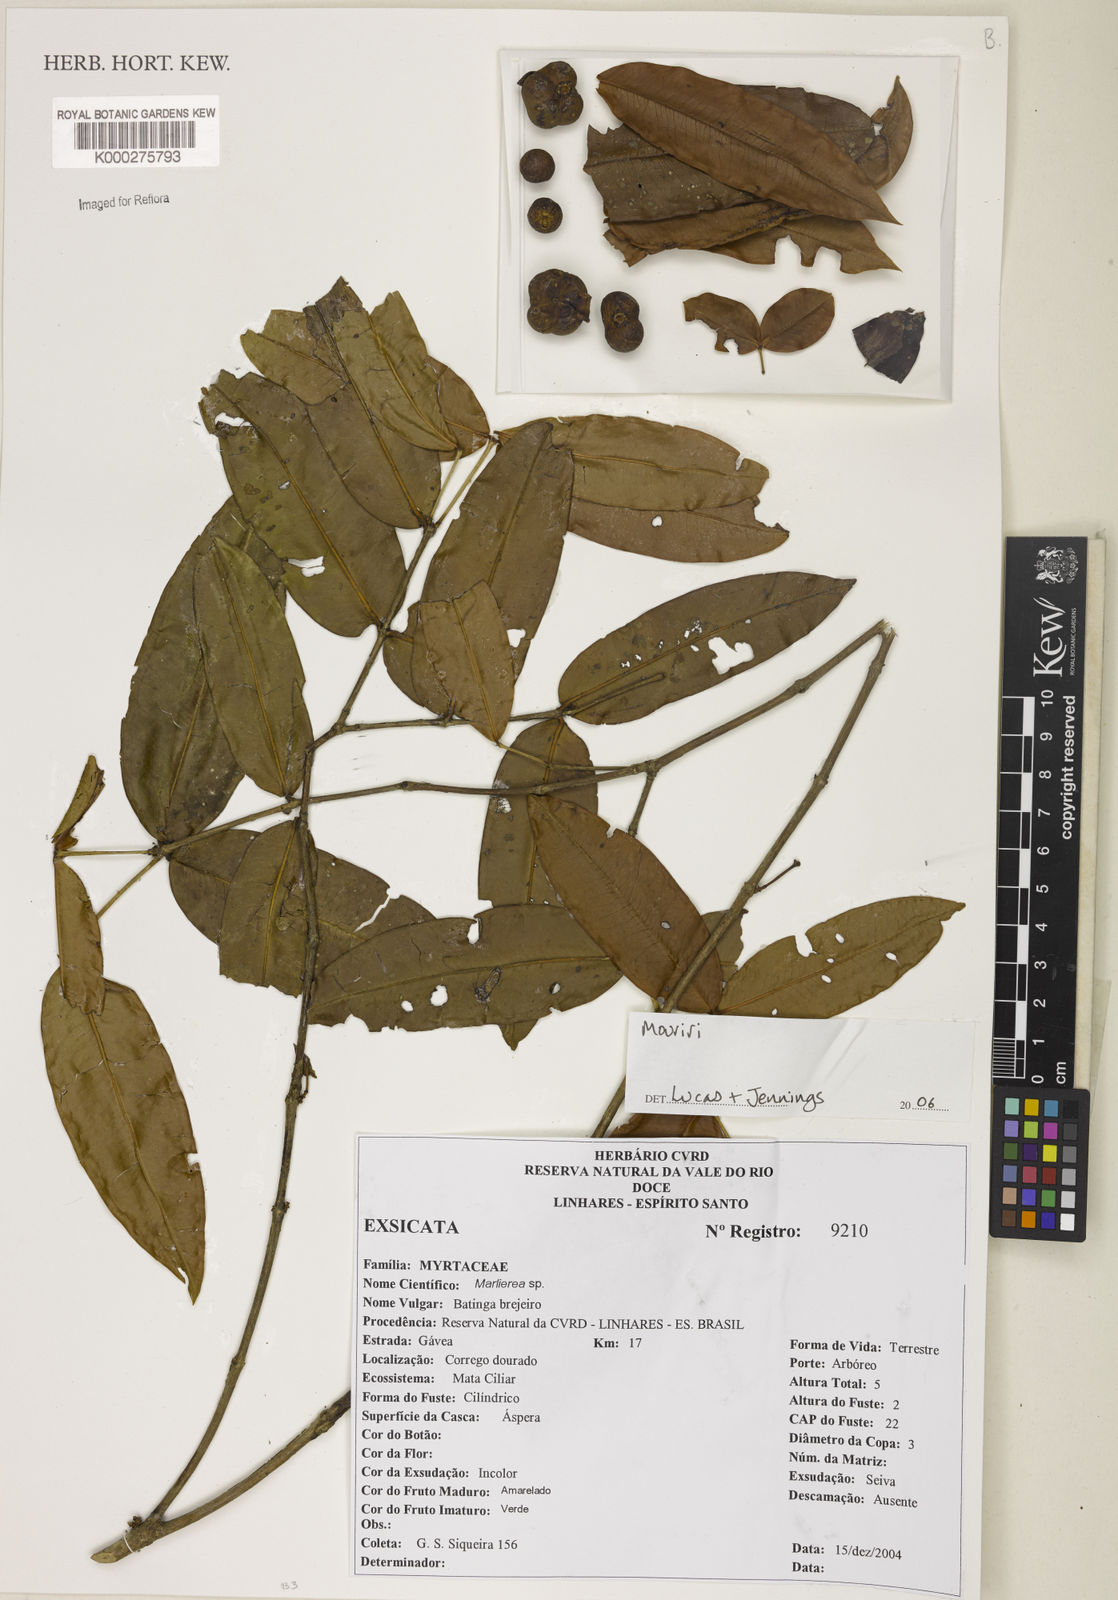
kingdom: Plantae
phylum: Tracheophyta
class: Magnoliopsida
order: Myrtales
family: Melastomataceae
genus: Mouriri
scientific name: Mouriri
